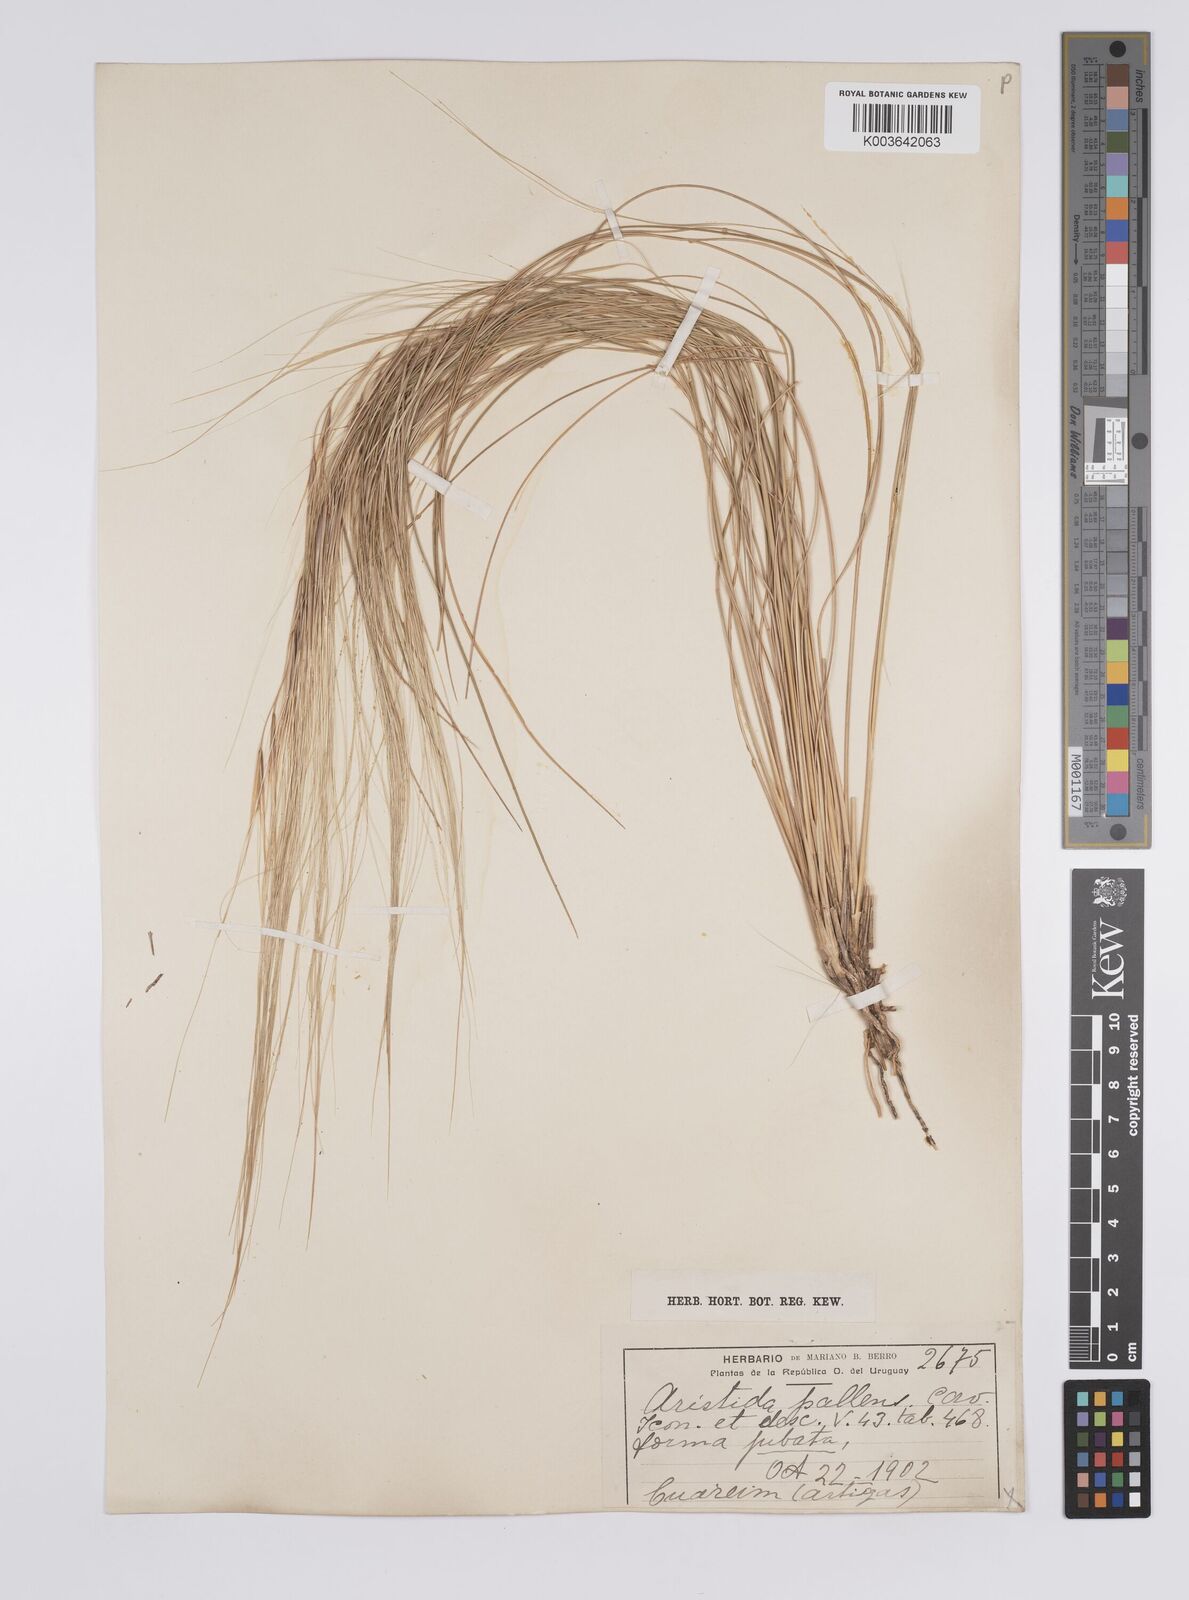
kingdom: Plantae
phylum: Tracheophyta
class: Liliopsida
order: Poales
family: Poaceae
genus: Aristida
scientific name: Aristida pallens
